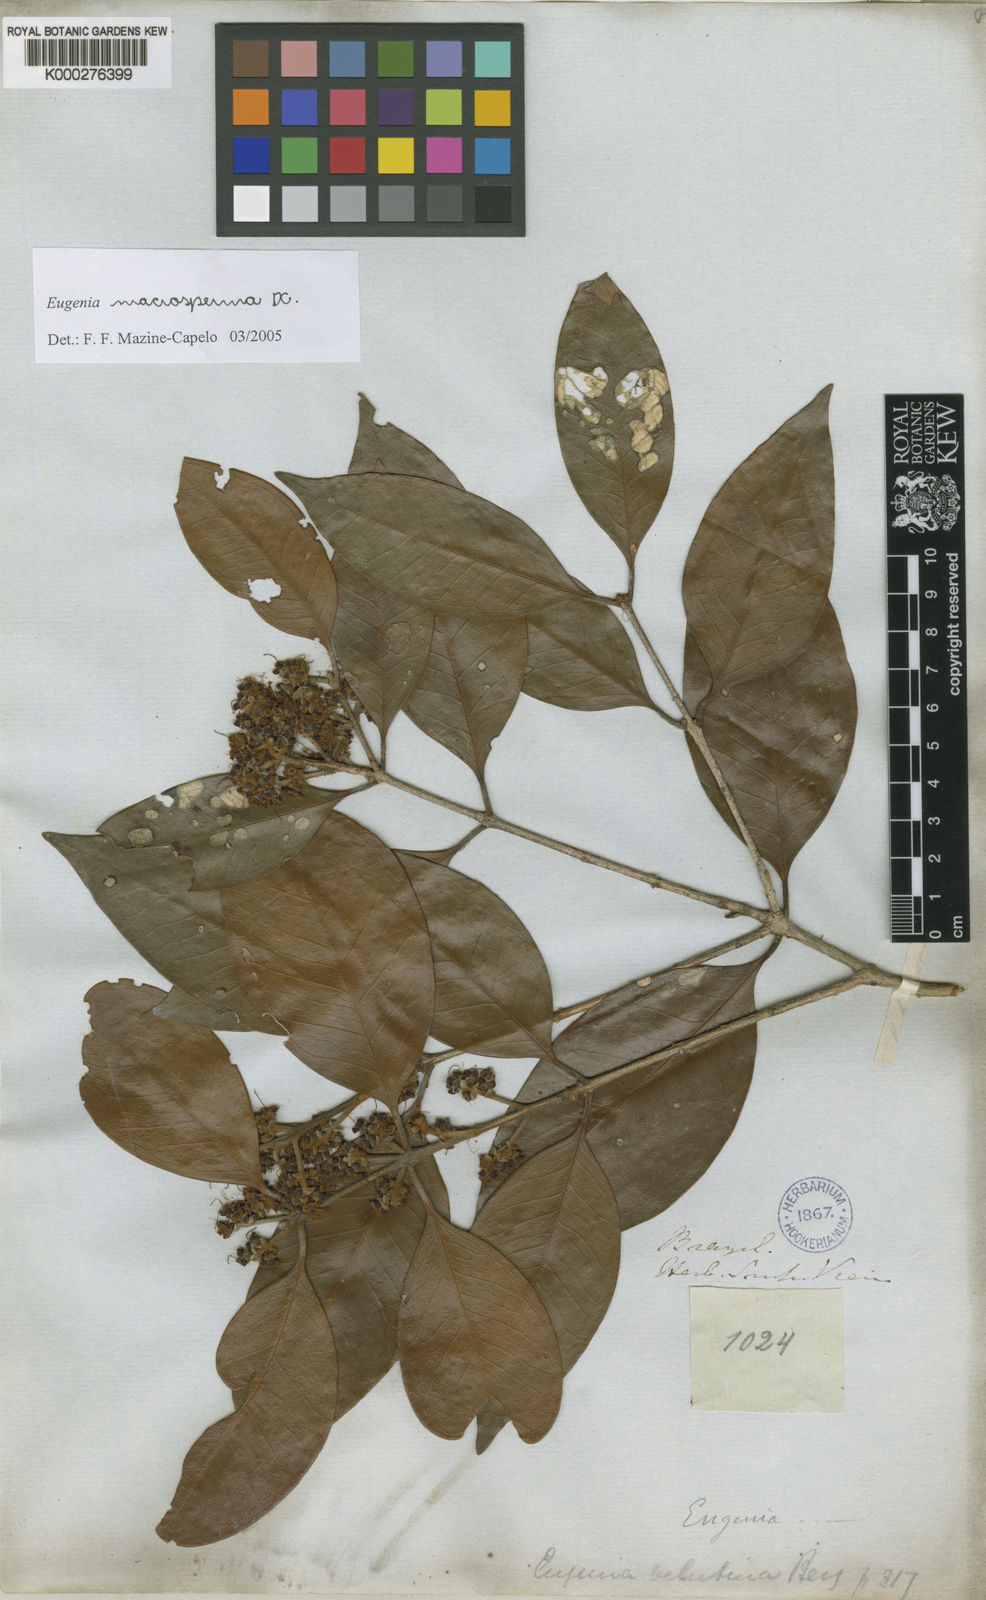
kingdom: Plantae
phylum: Tracheophyta
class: Magnoliopsida
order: Myrtales
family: Myrtaceae
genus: Eugenia
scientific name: Eugenia macrosperma
